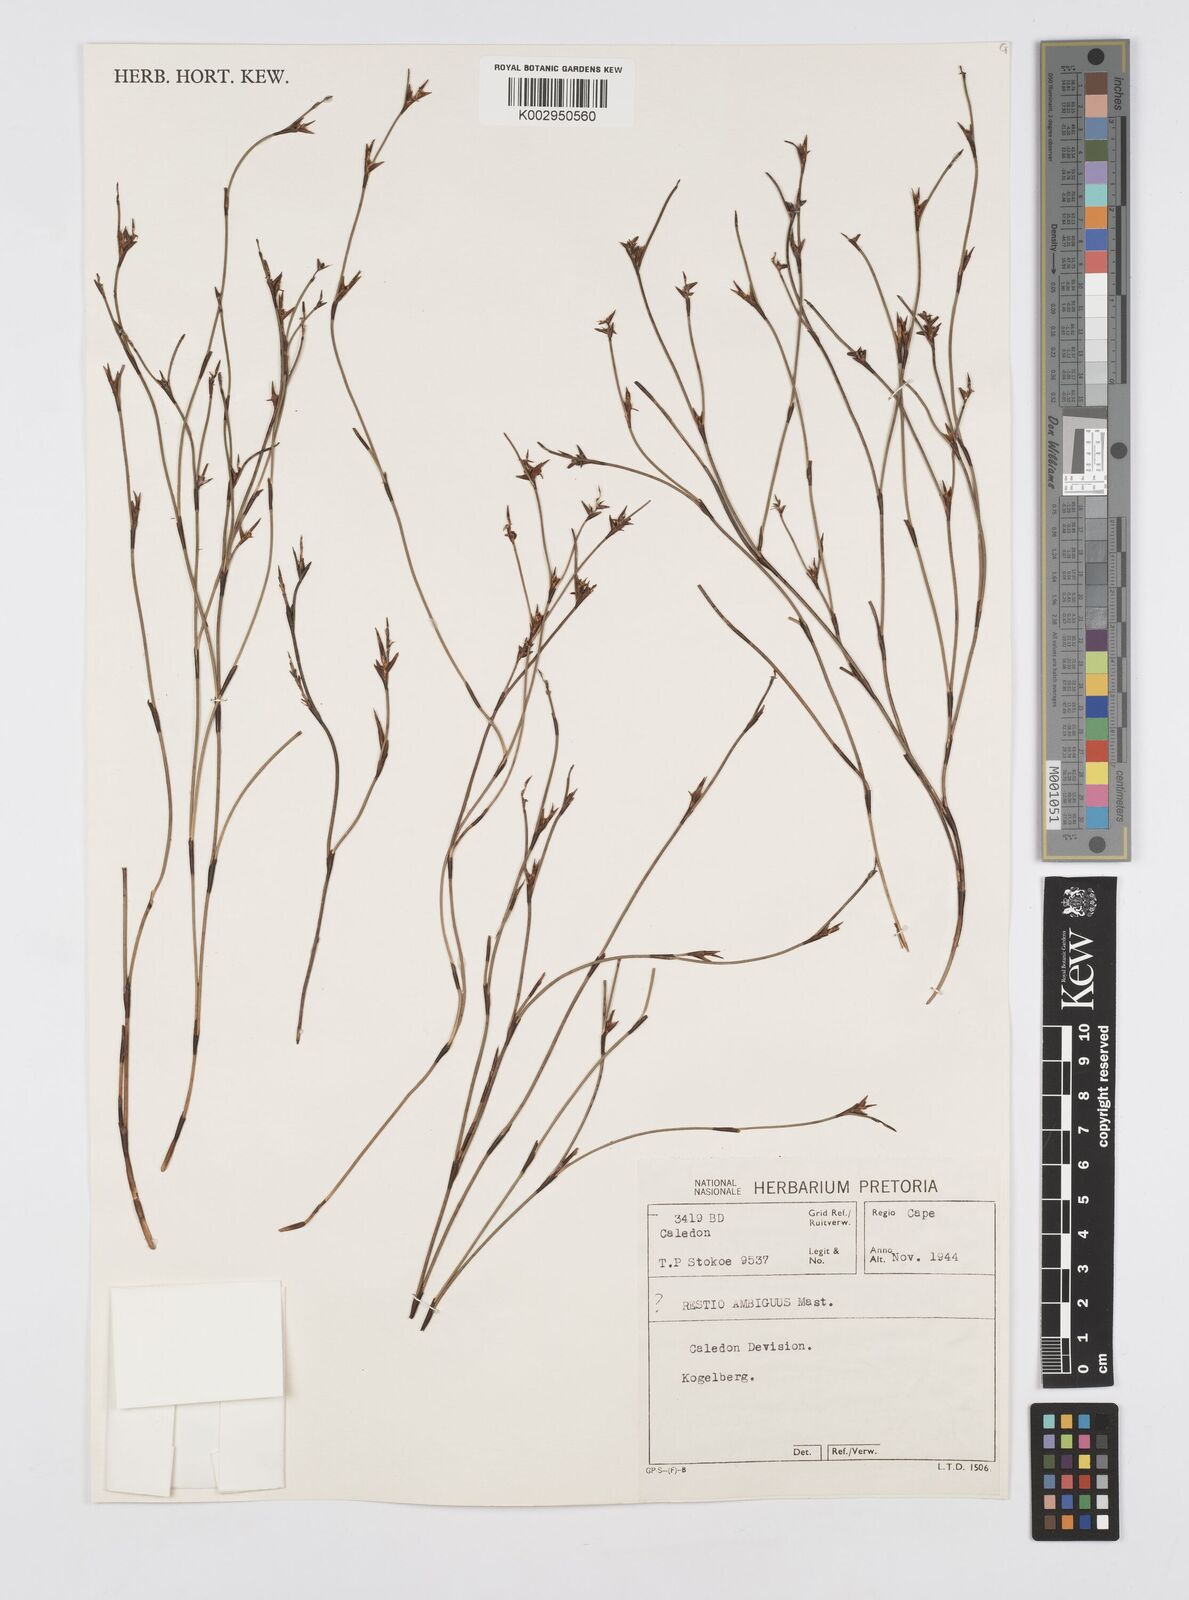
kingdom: Plantae
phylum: Tracheophyta
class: Liliopsida
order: Poales
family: Restionaceae
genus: Soroveta
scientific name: Soroveta ambigua
